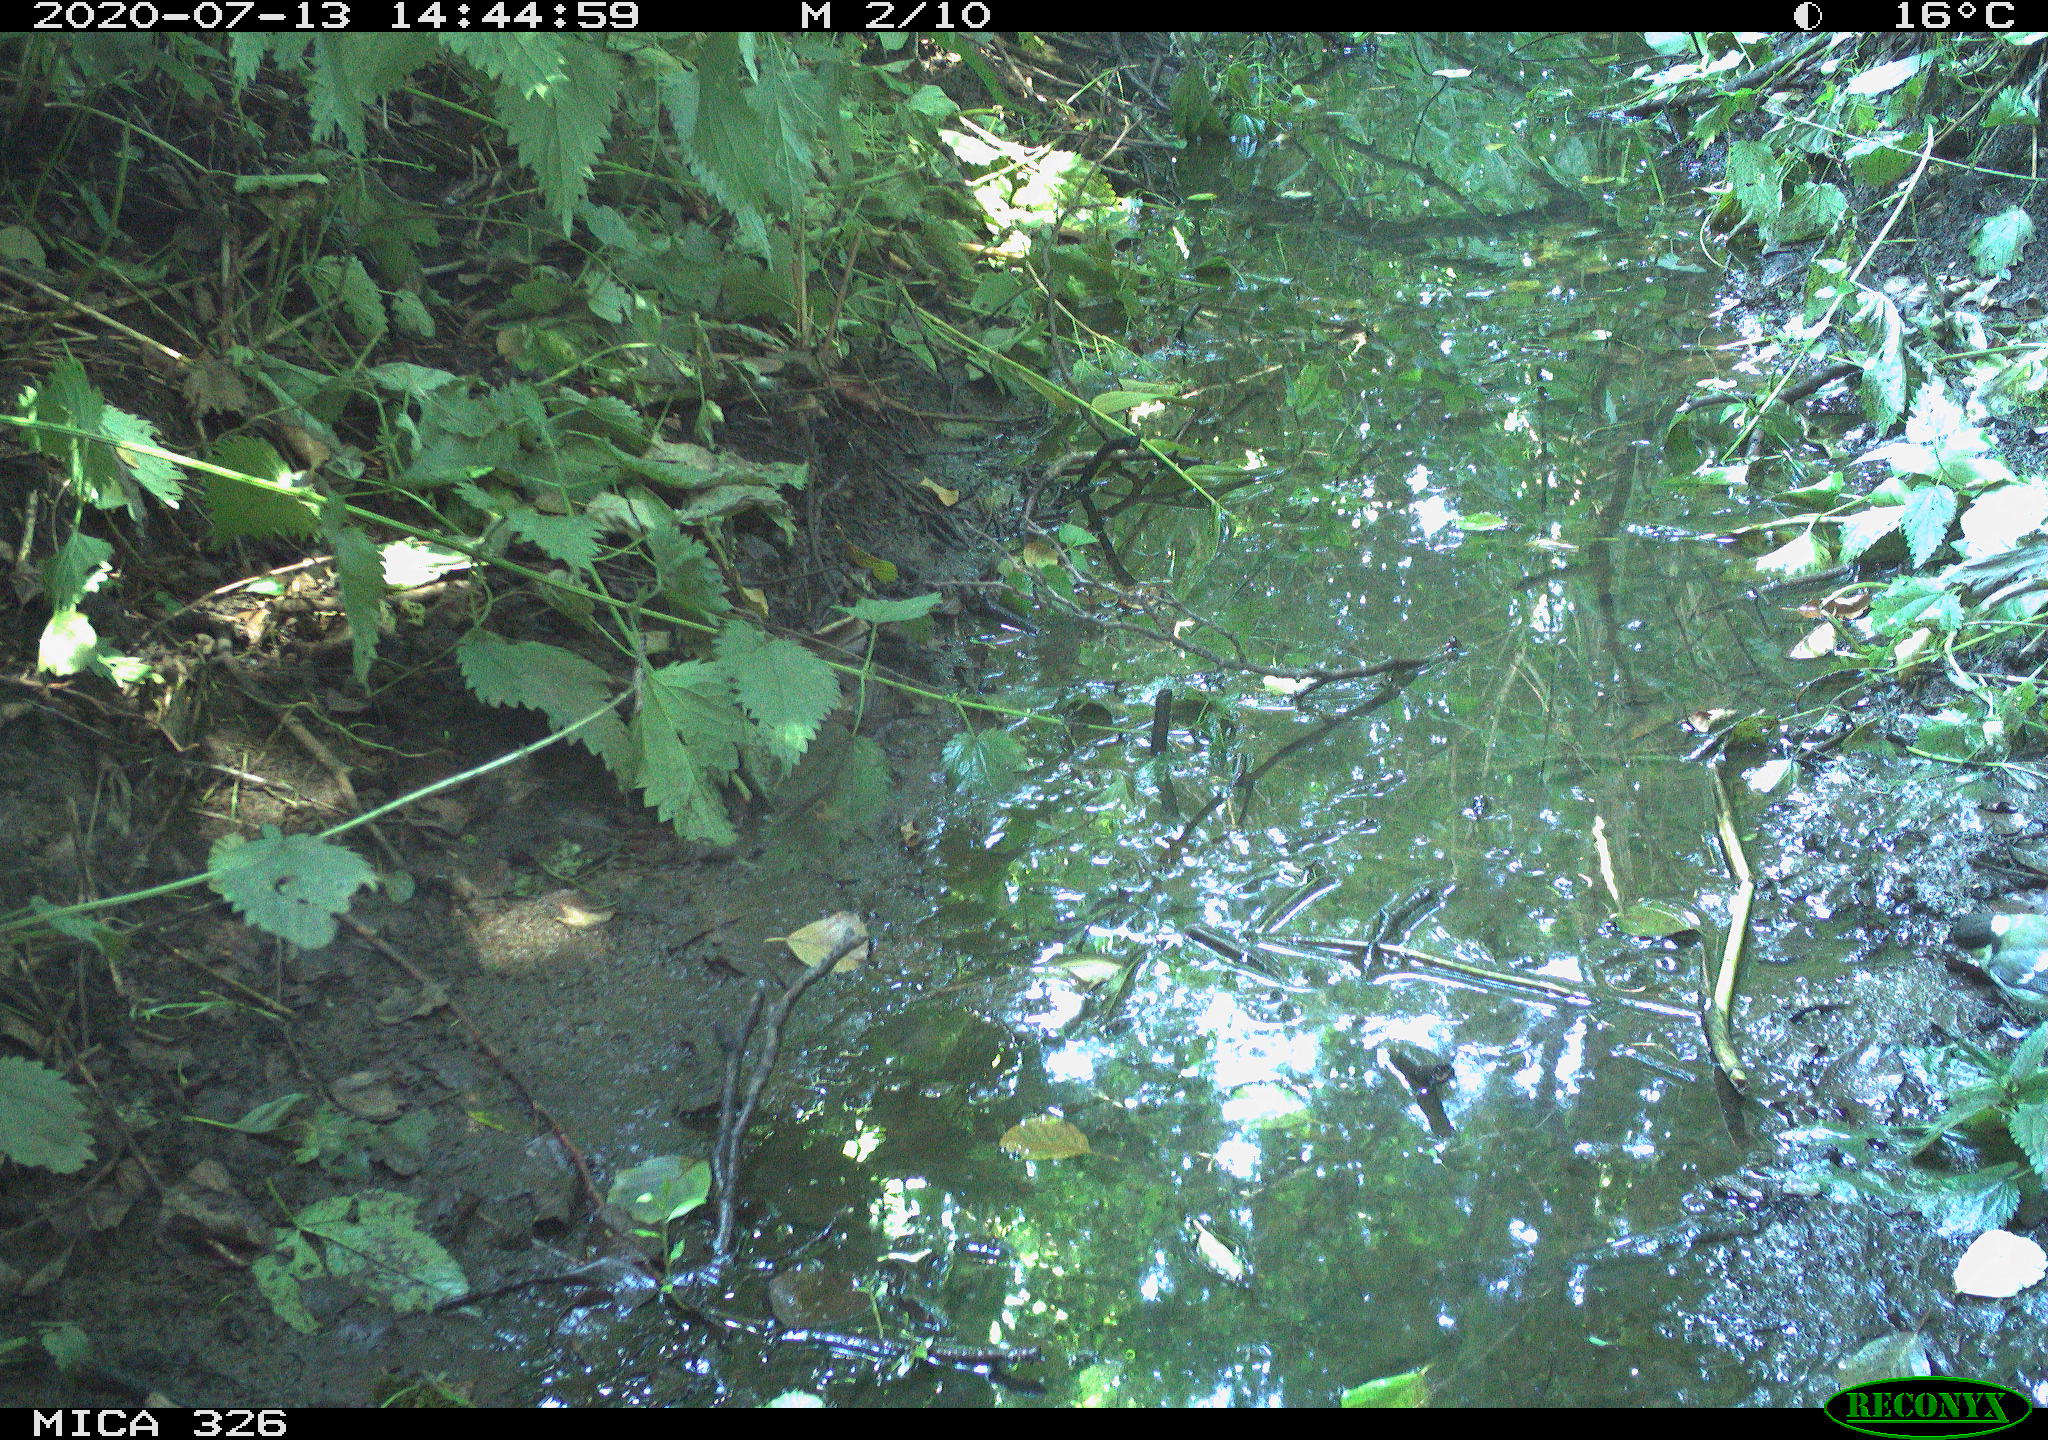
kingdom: Animalia
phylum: Chordata
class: Aves
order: Passeriformes
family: Paridae
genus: Parus
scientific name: Parus major
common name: Great tit
